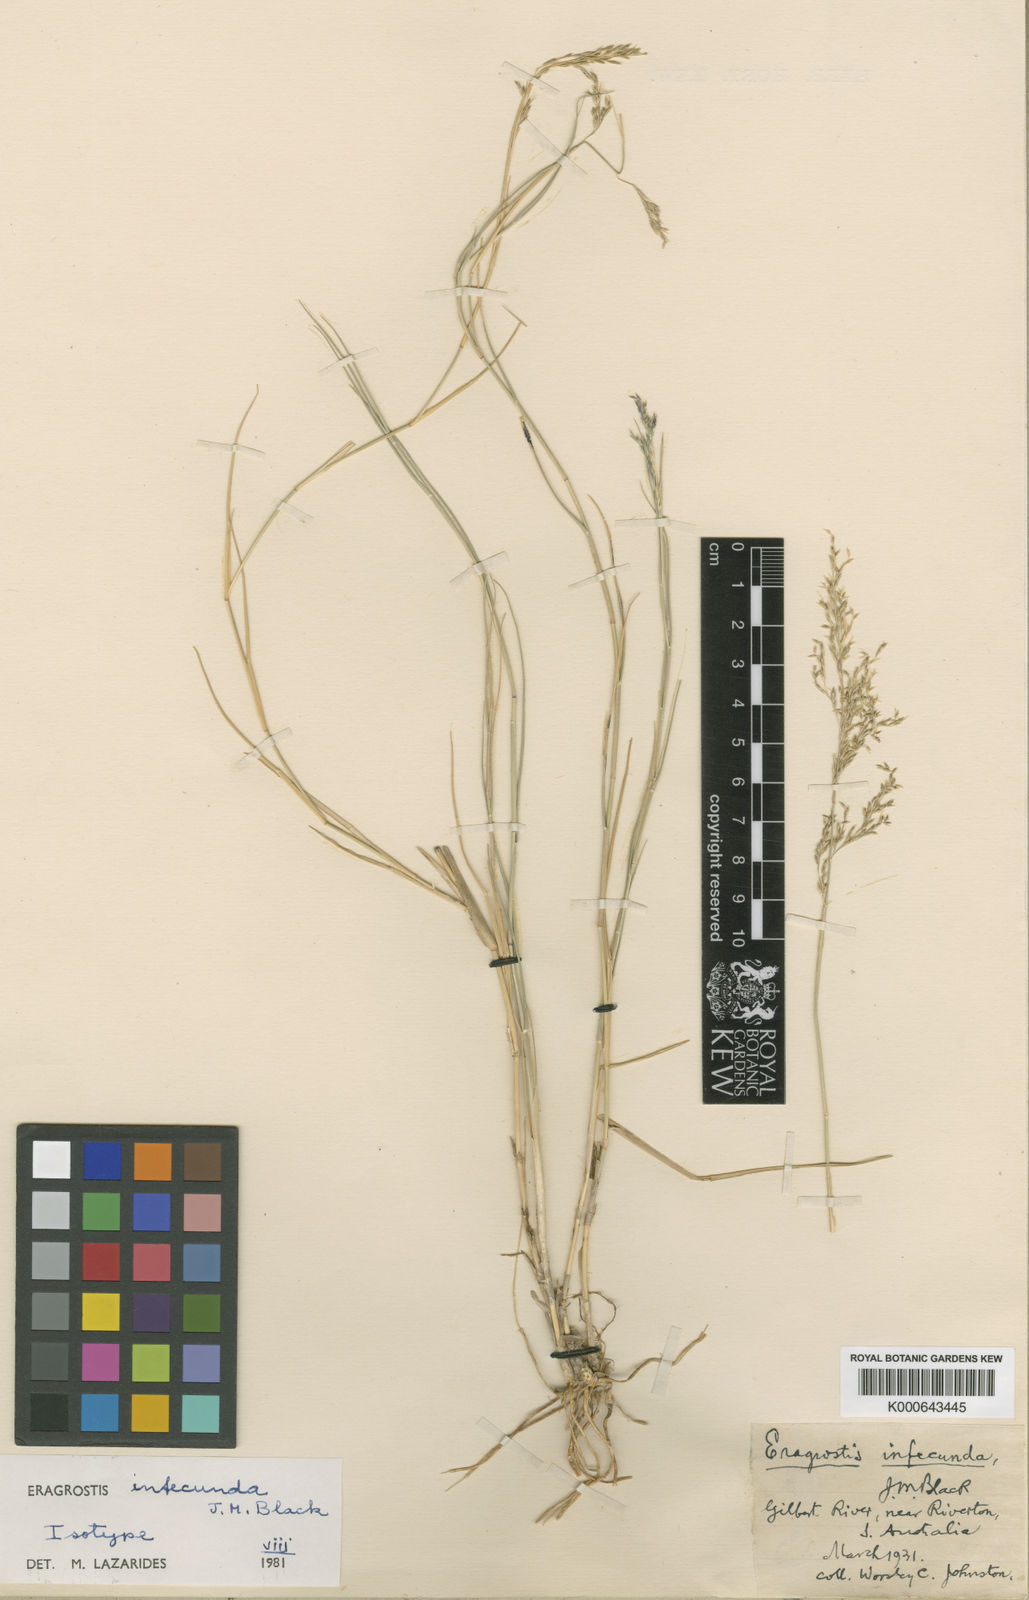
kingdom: Plantae
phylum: Tracheophyta
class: Liliopsida
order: Poales
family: Poaceae
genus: Eragrostis
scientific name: Eragrostis infecunda
